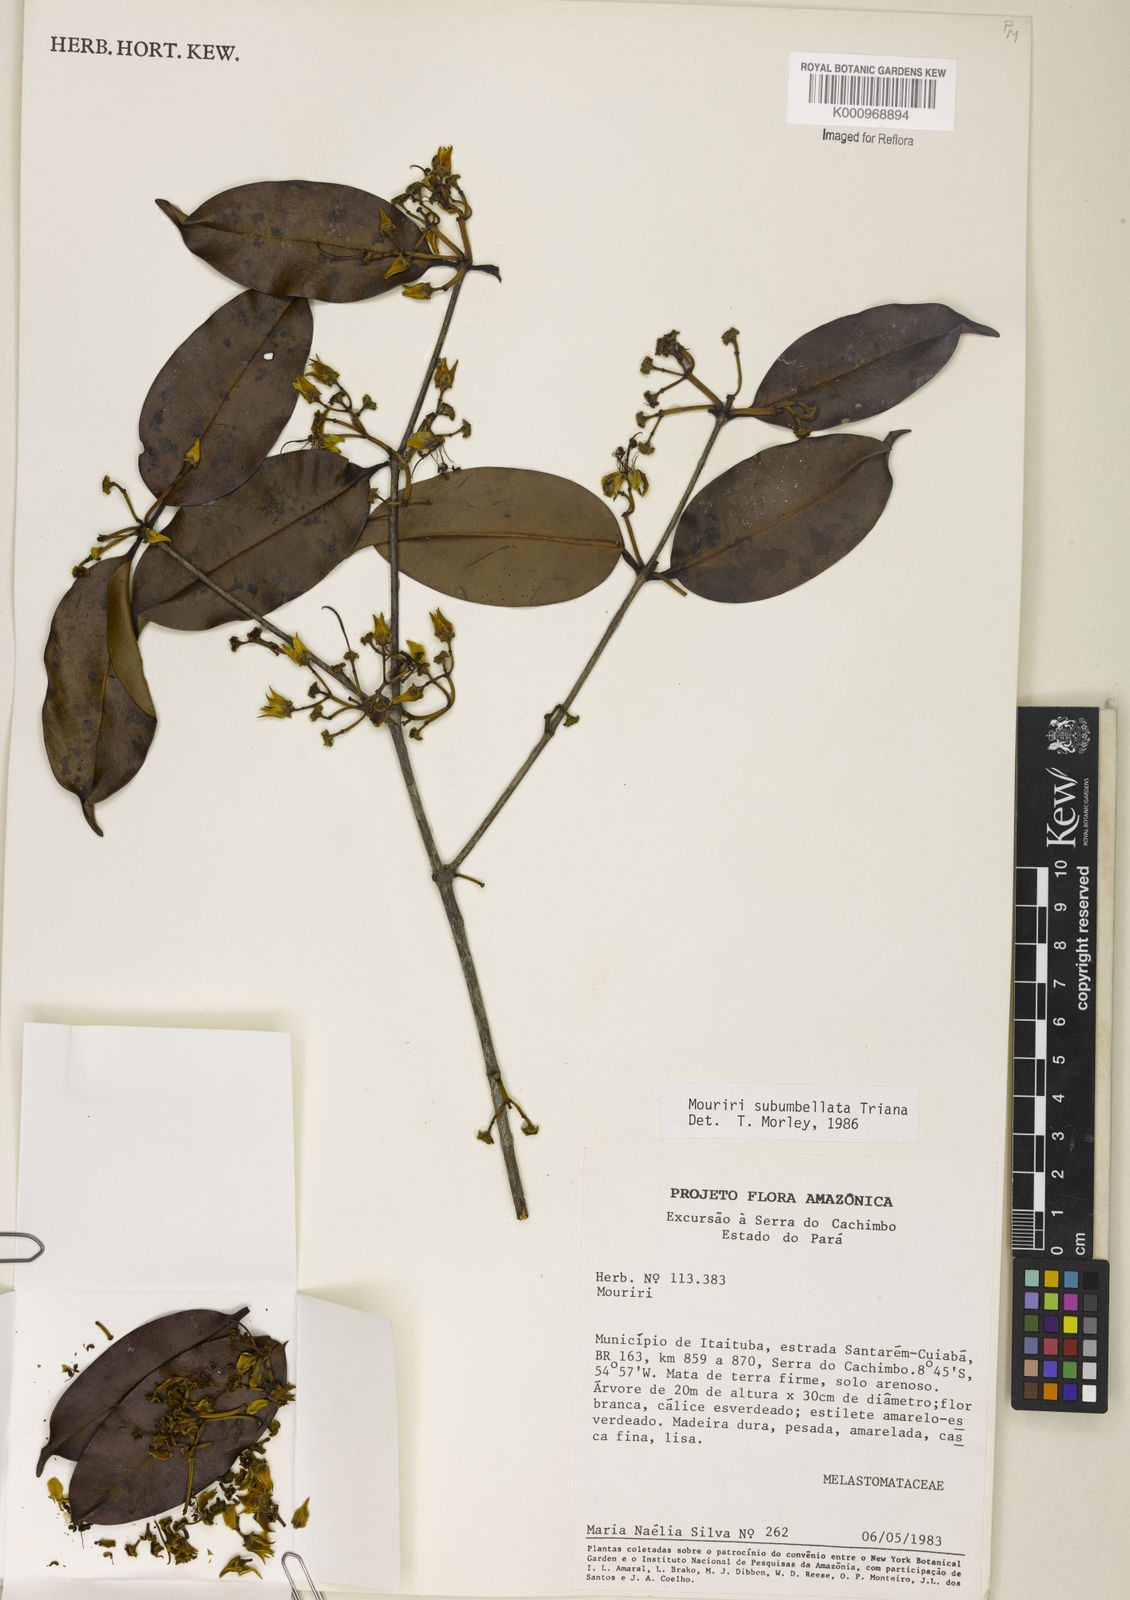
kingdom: Plantae
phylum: Tracheophyta
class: Magnoliopsida
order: Myrtales
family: Melastomataceae
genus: Mouriri
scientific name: Mouriri subumbellata
